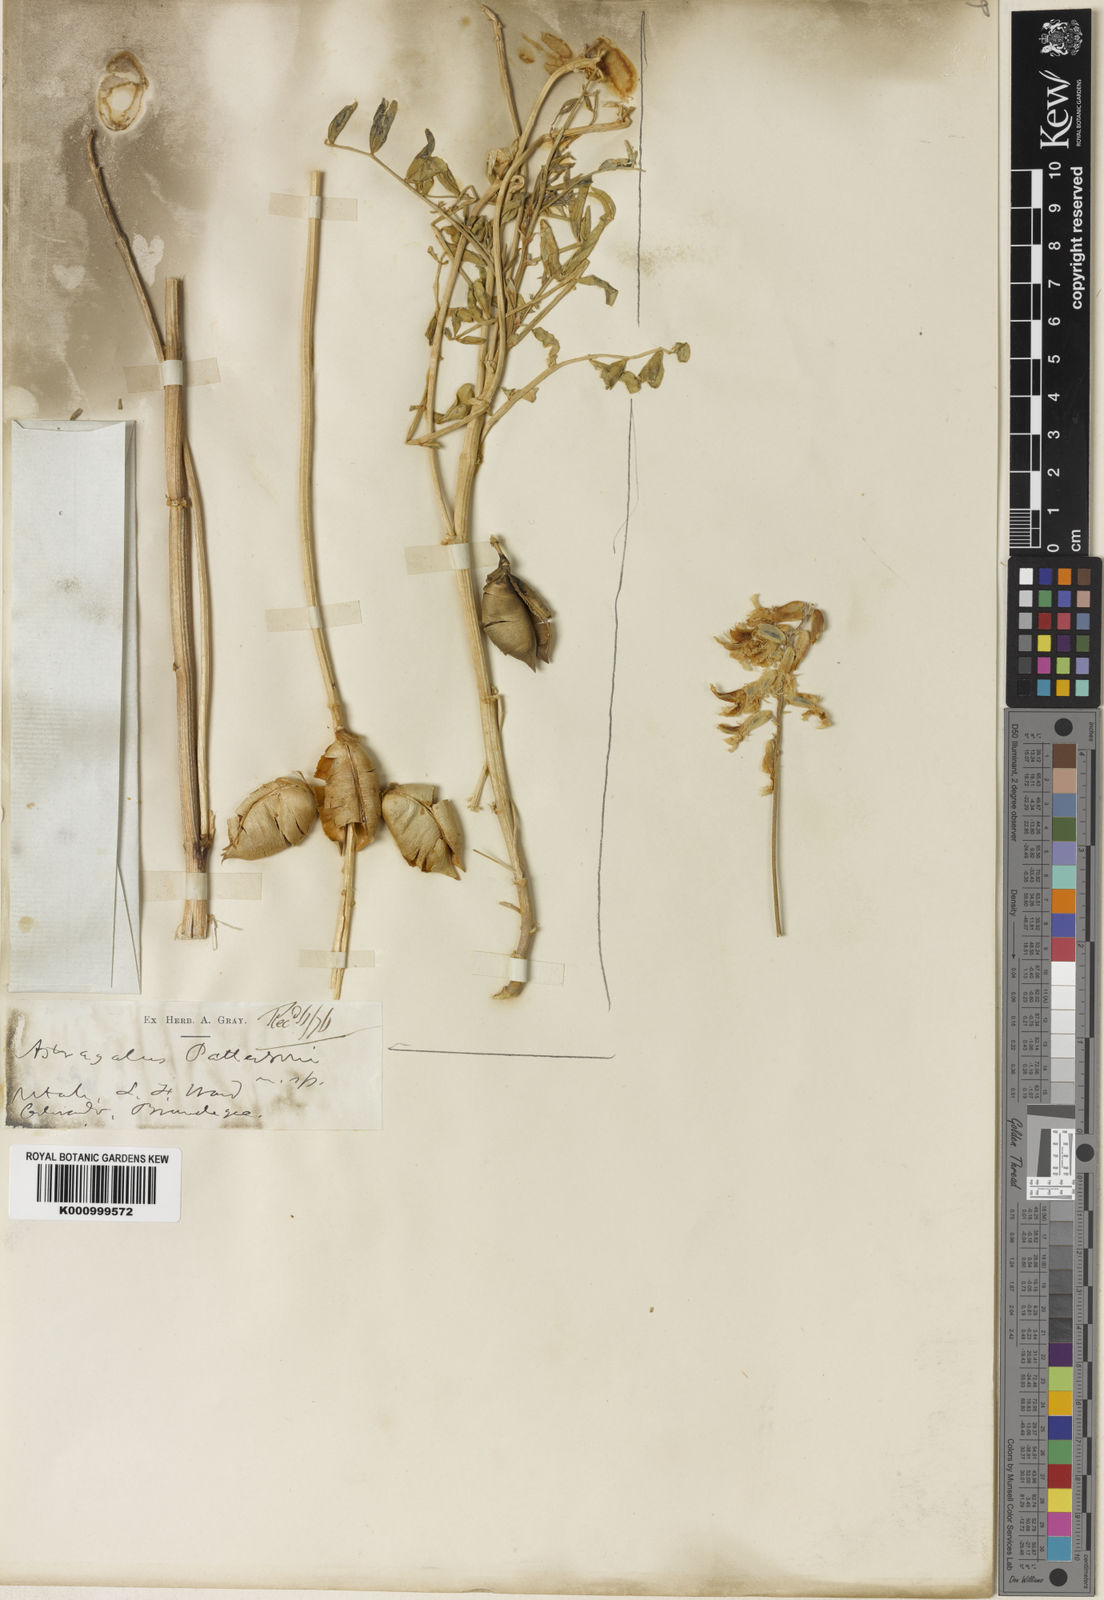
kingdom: Plantae
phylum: Tracheophyta
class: Magnoliopsida
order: Fabales
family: Fabaceae
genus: Astragalus
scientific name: Astragalus pattersonii
